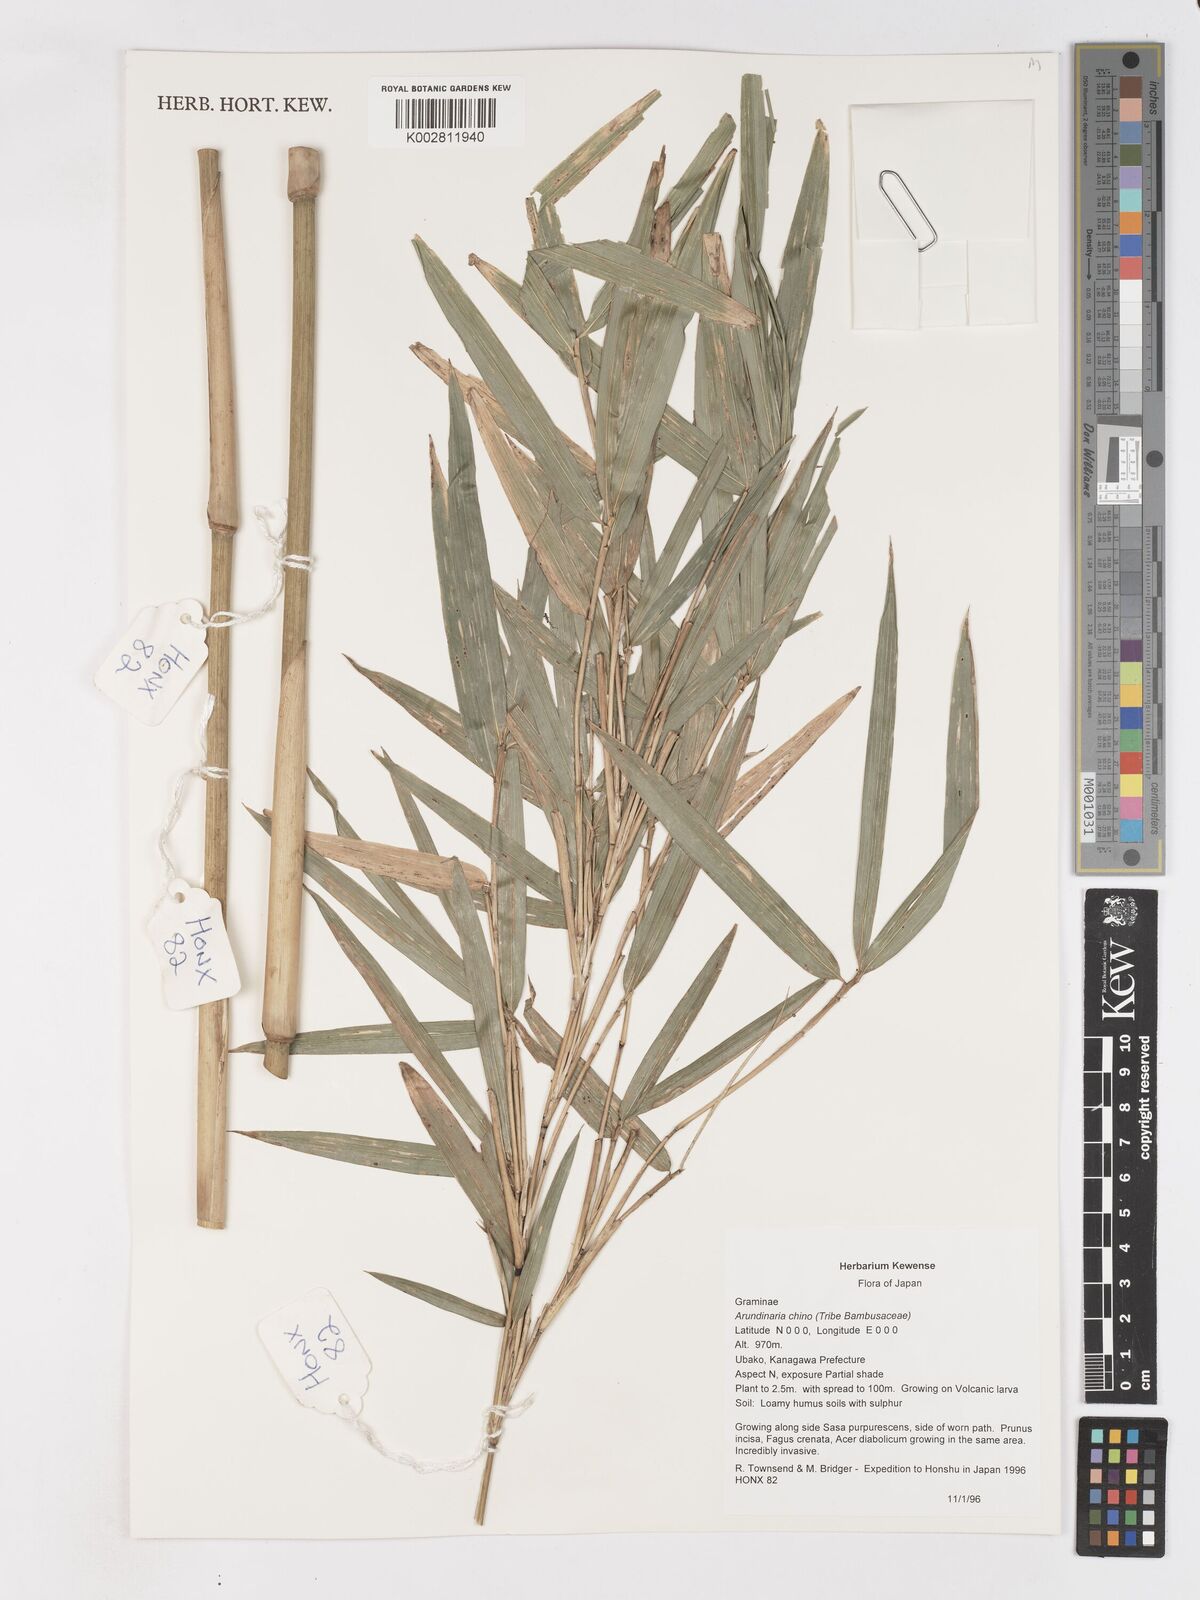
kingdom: Plantae
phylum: Tracheophyta
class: Liliopsida
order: Poales
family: Poaceae
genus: Pleioblastus
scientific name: Pleioblastus argenteostriatus
